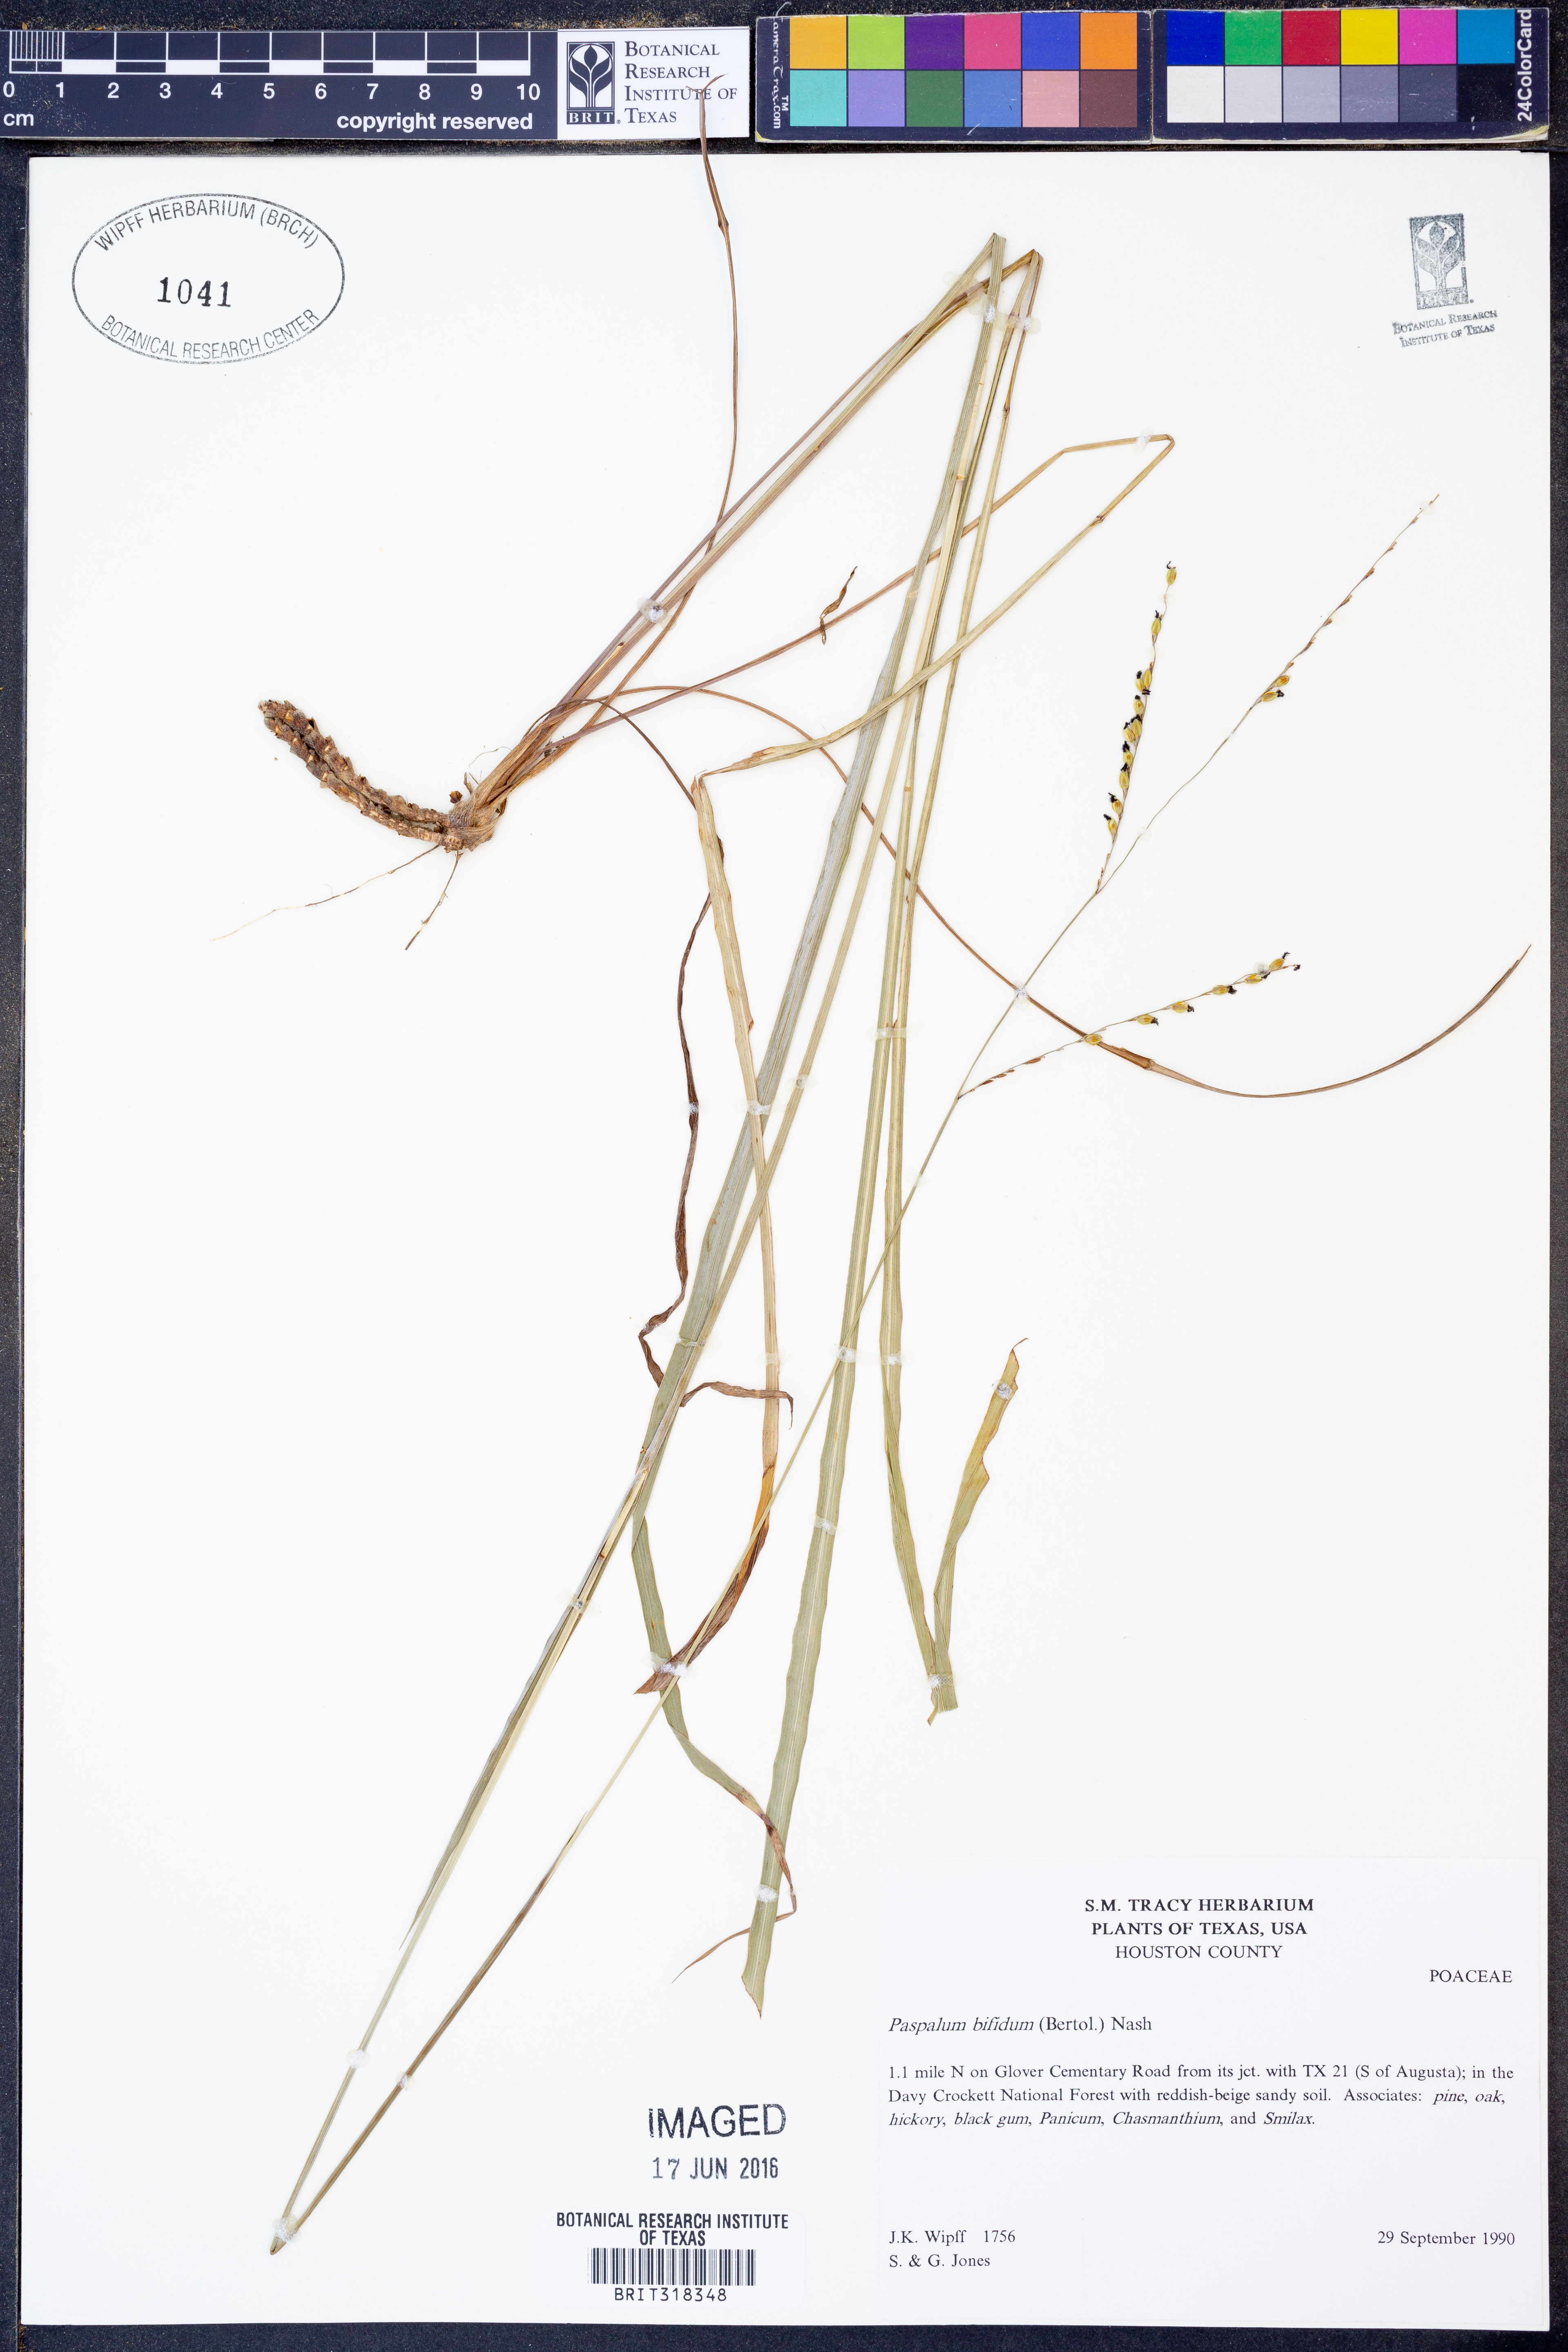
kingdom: Plantae
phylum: Tracheophyta
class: Liliopsida
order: Poales
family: Poaceae
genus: Paspalum
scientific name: Paspalum bifidum
